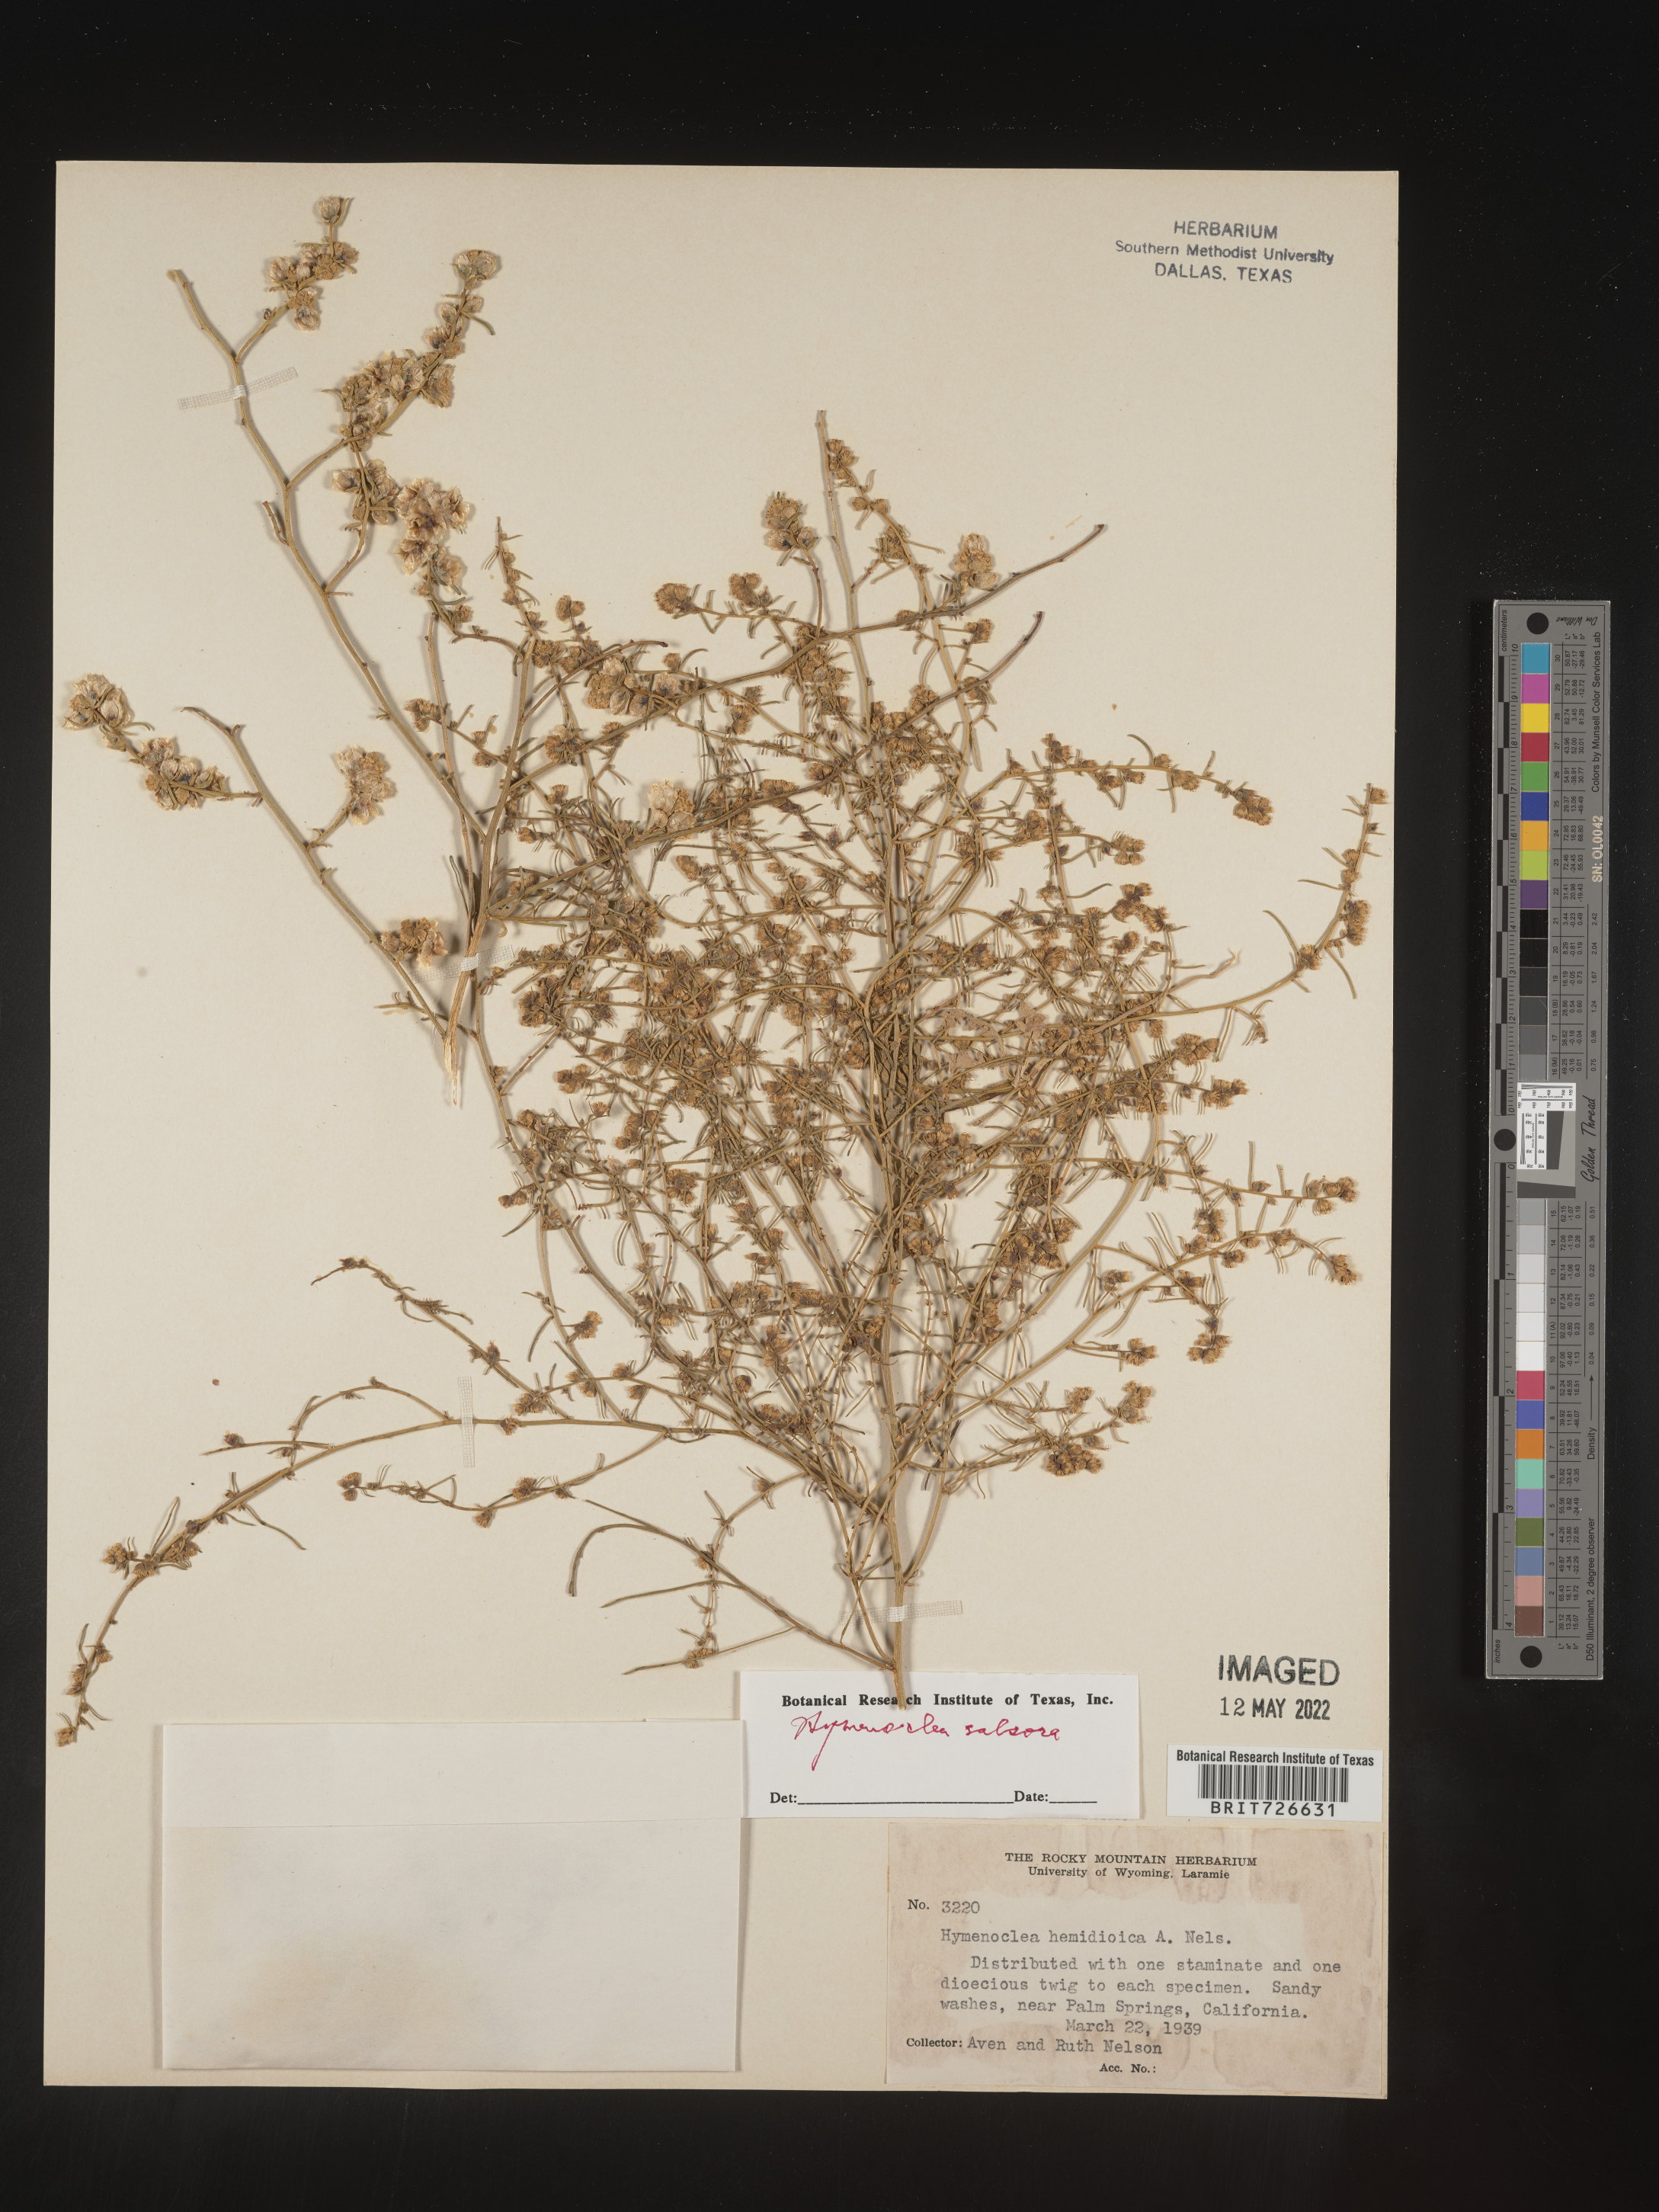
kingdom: Animalia
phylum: Arthropoda
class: Insecta
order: Lepidoptera
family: Sesiidae
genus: Hymenoclea
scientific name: Hymenoclea
